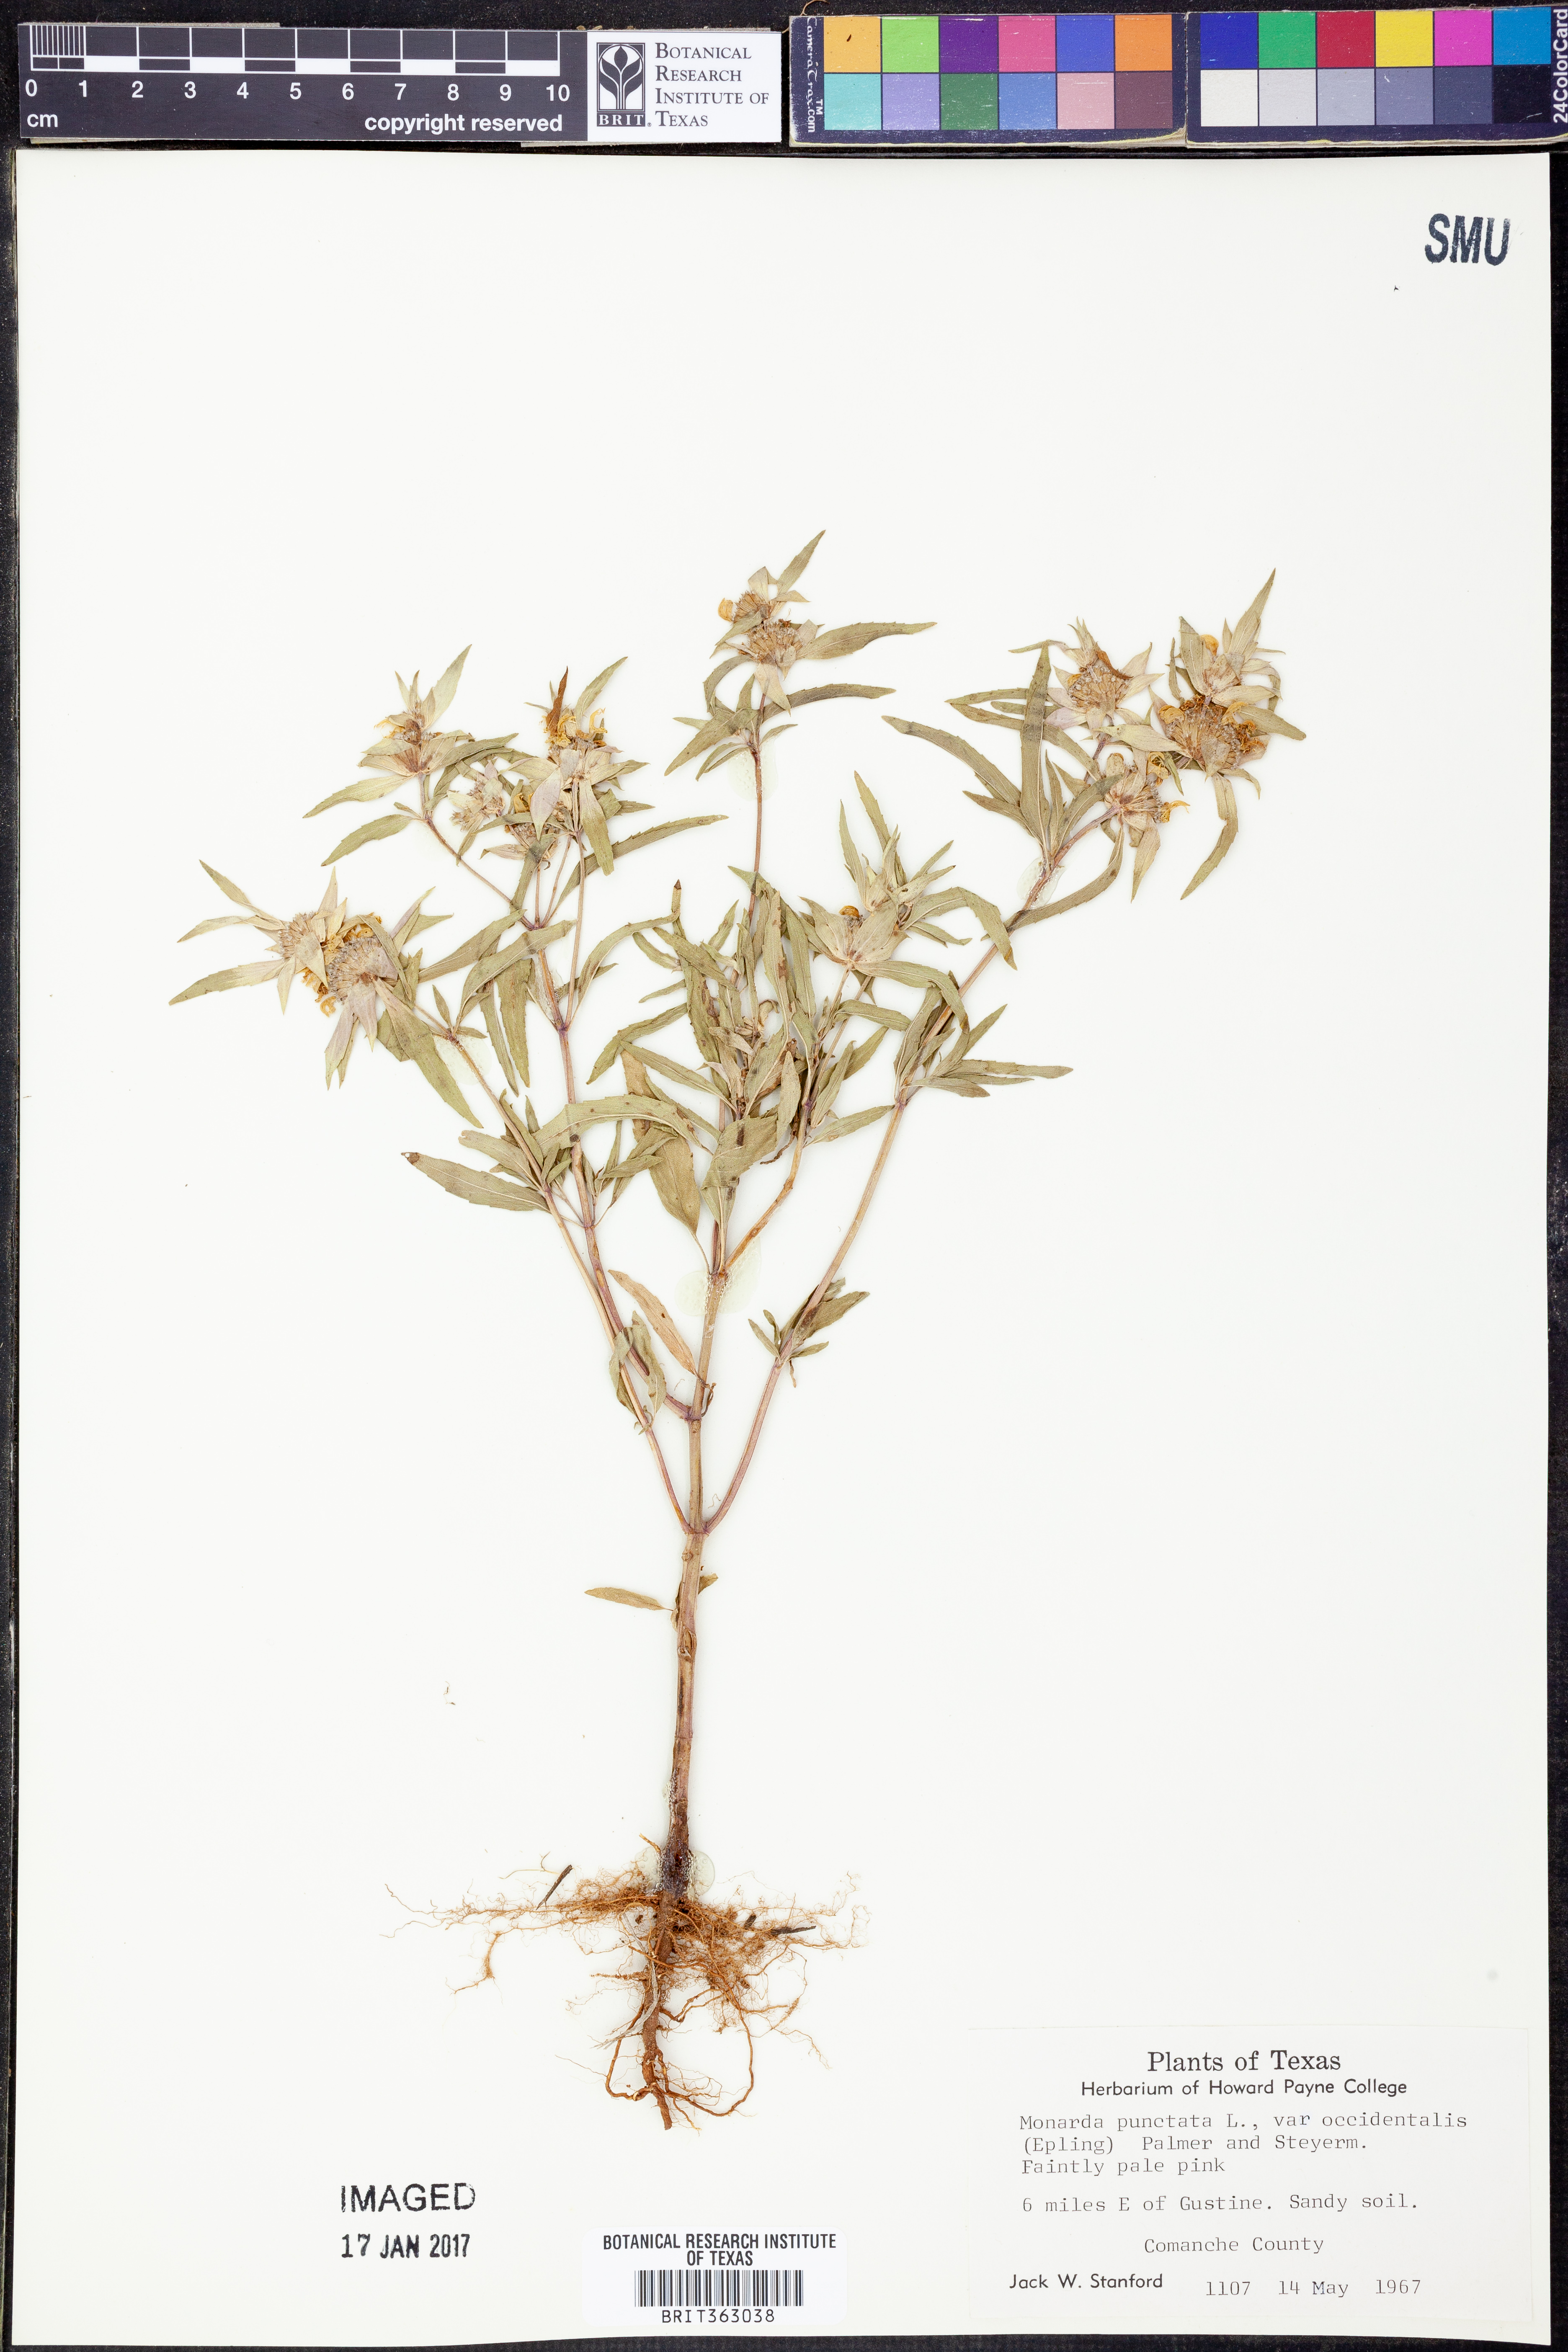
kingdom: Plantae
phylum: Tracheophyta
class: Magnoliopsida
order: Lamiales
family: Lamiaceae
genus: Monarda
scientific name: Monarda punctata
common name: Dotted monarda
